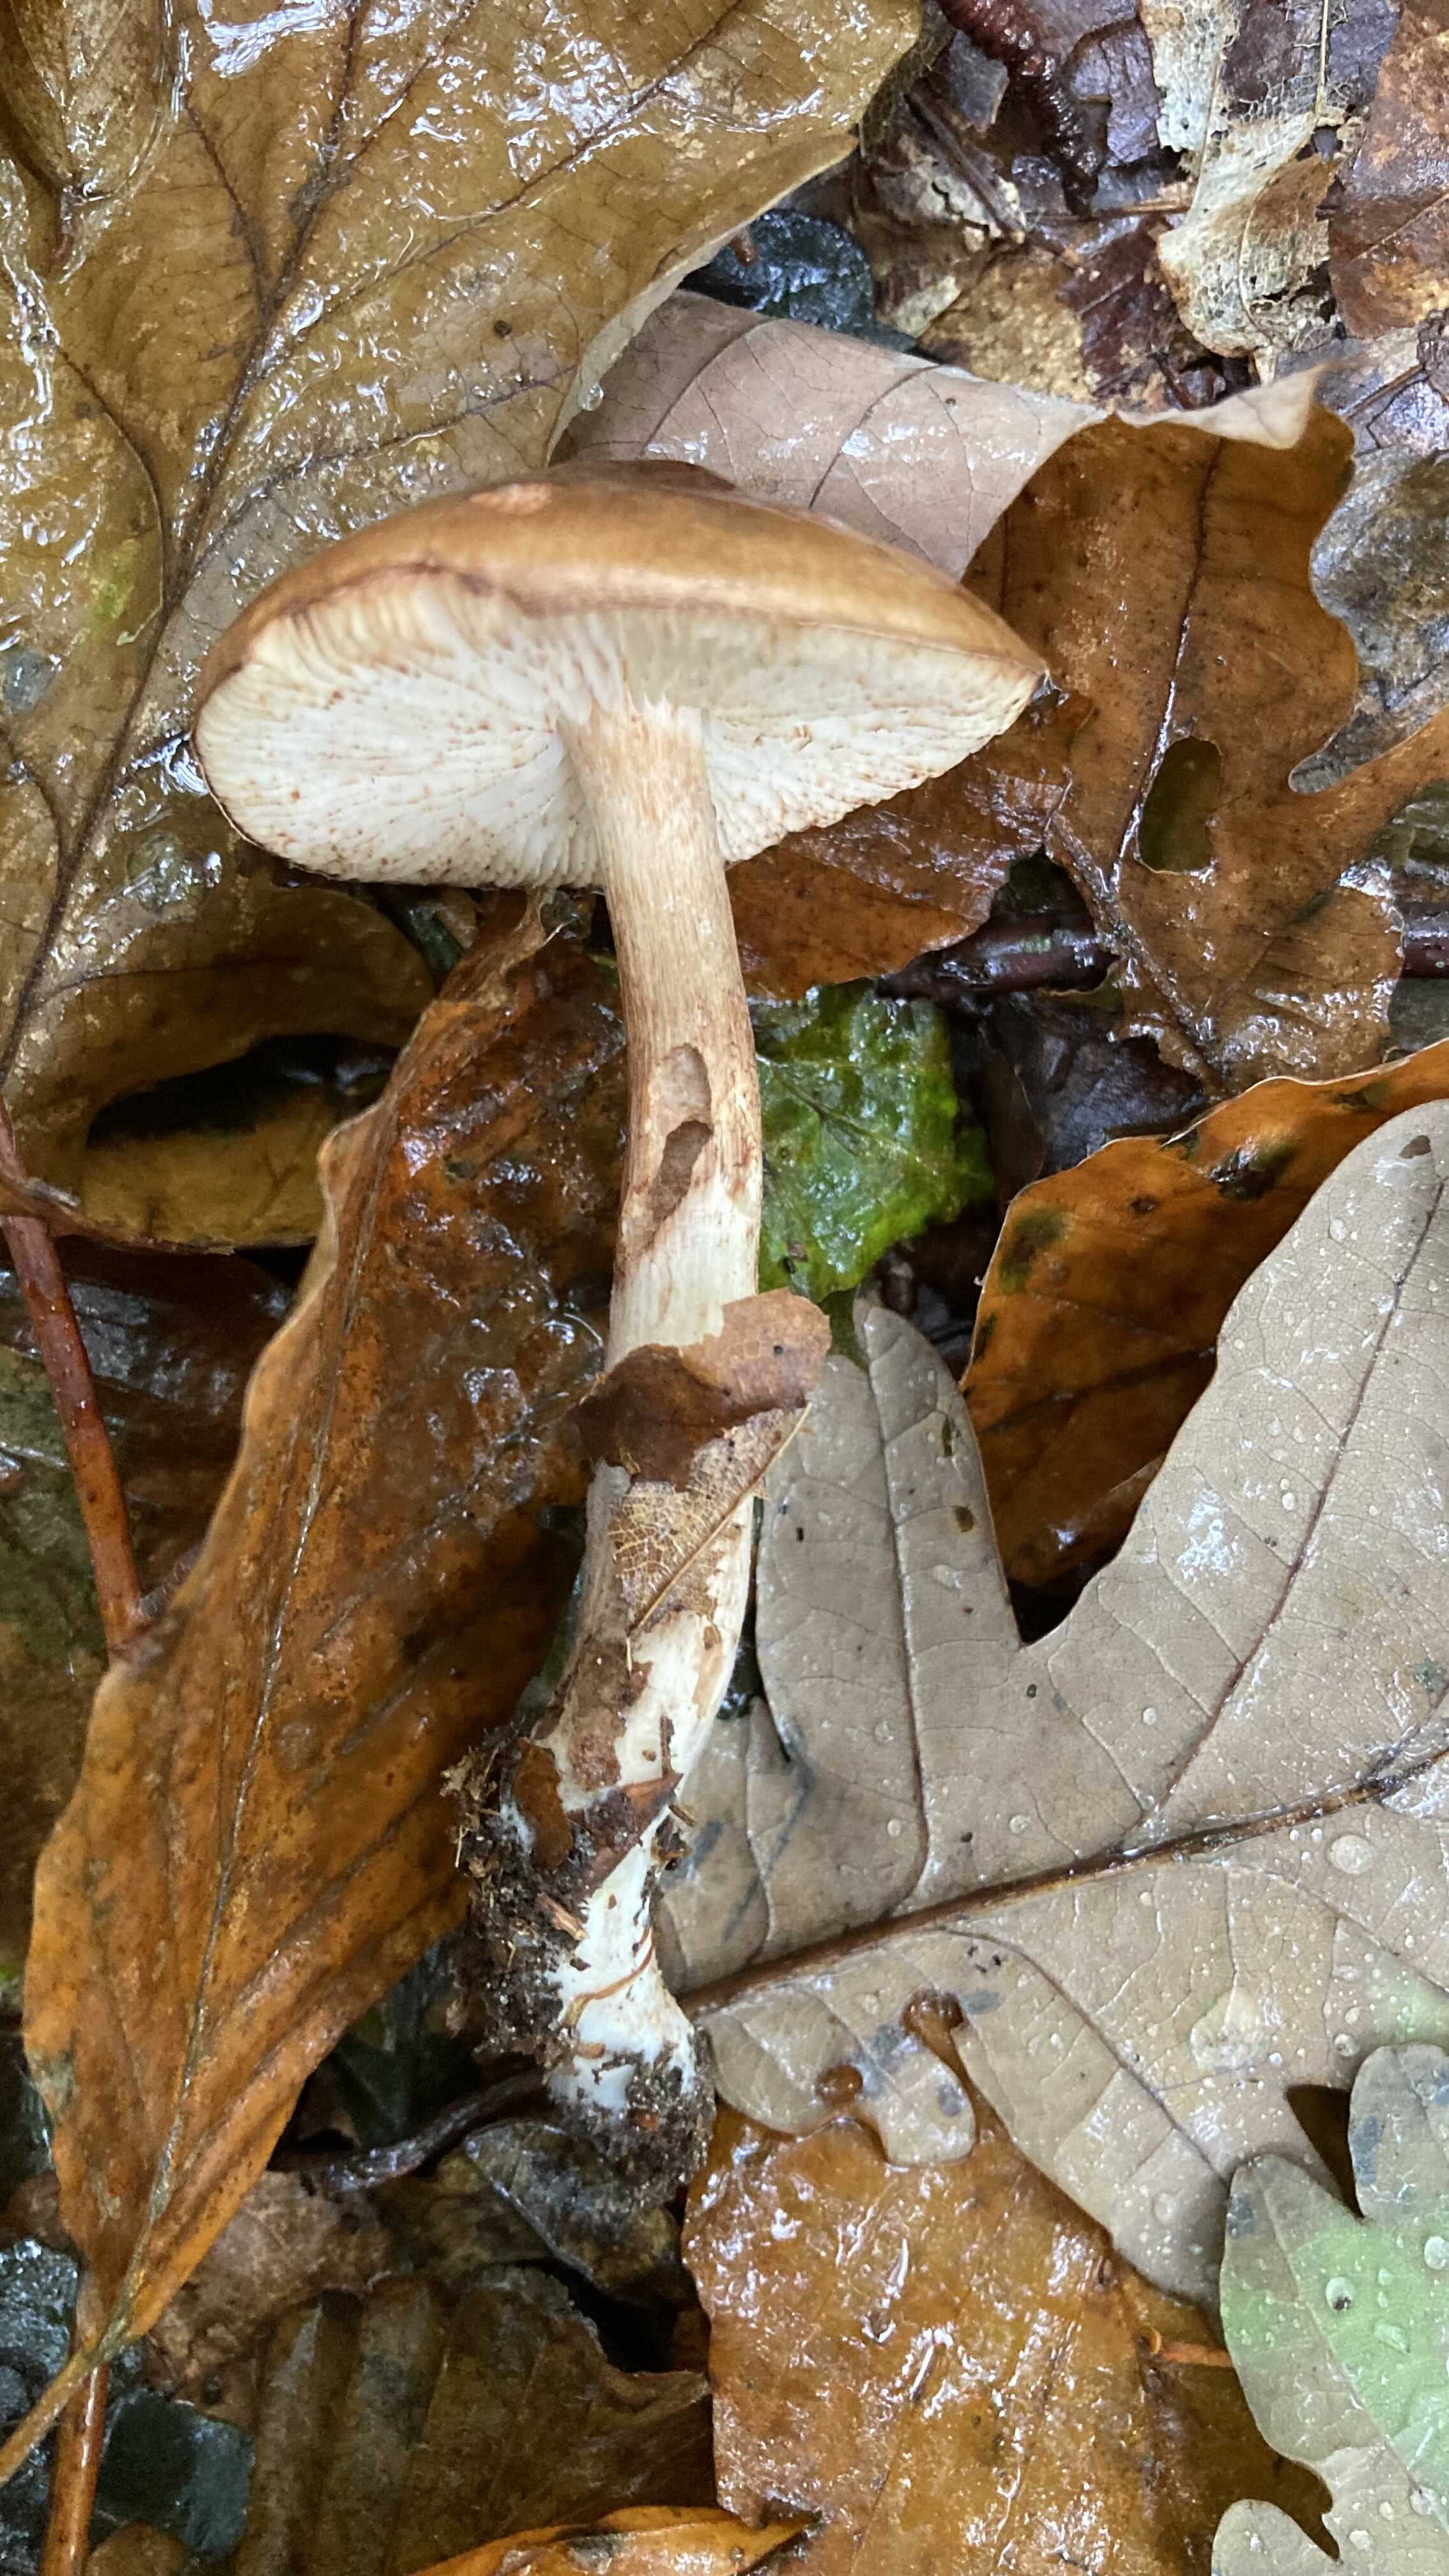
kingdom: Fungi
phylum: Basidiomycota
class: Agaricomycetes
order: Agaricales
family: Tricholomataceae
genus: Tricholoma
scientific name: Tricholoma ustale
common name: sveden ridderhat
